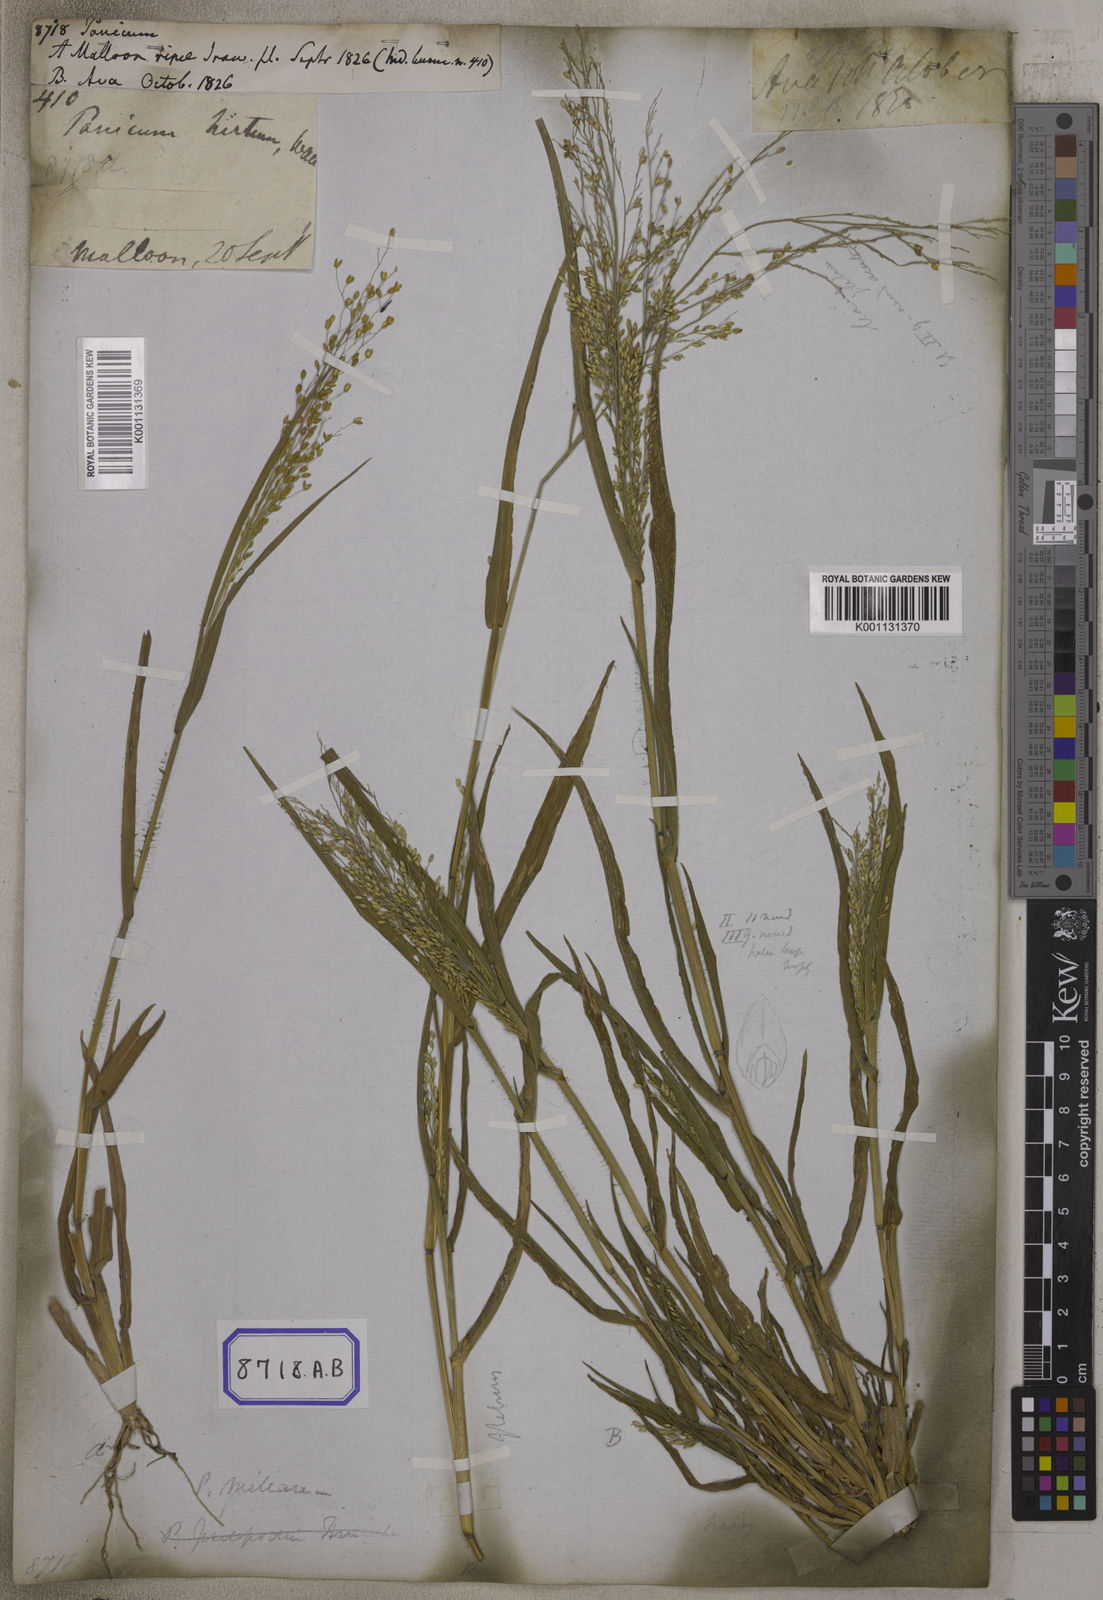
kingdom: Plantae
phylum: Tracheophyta
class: Liliopsida
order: Poales
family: Poaceae
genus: Panicum
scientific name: Panicum
